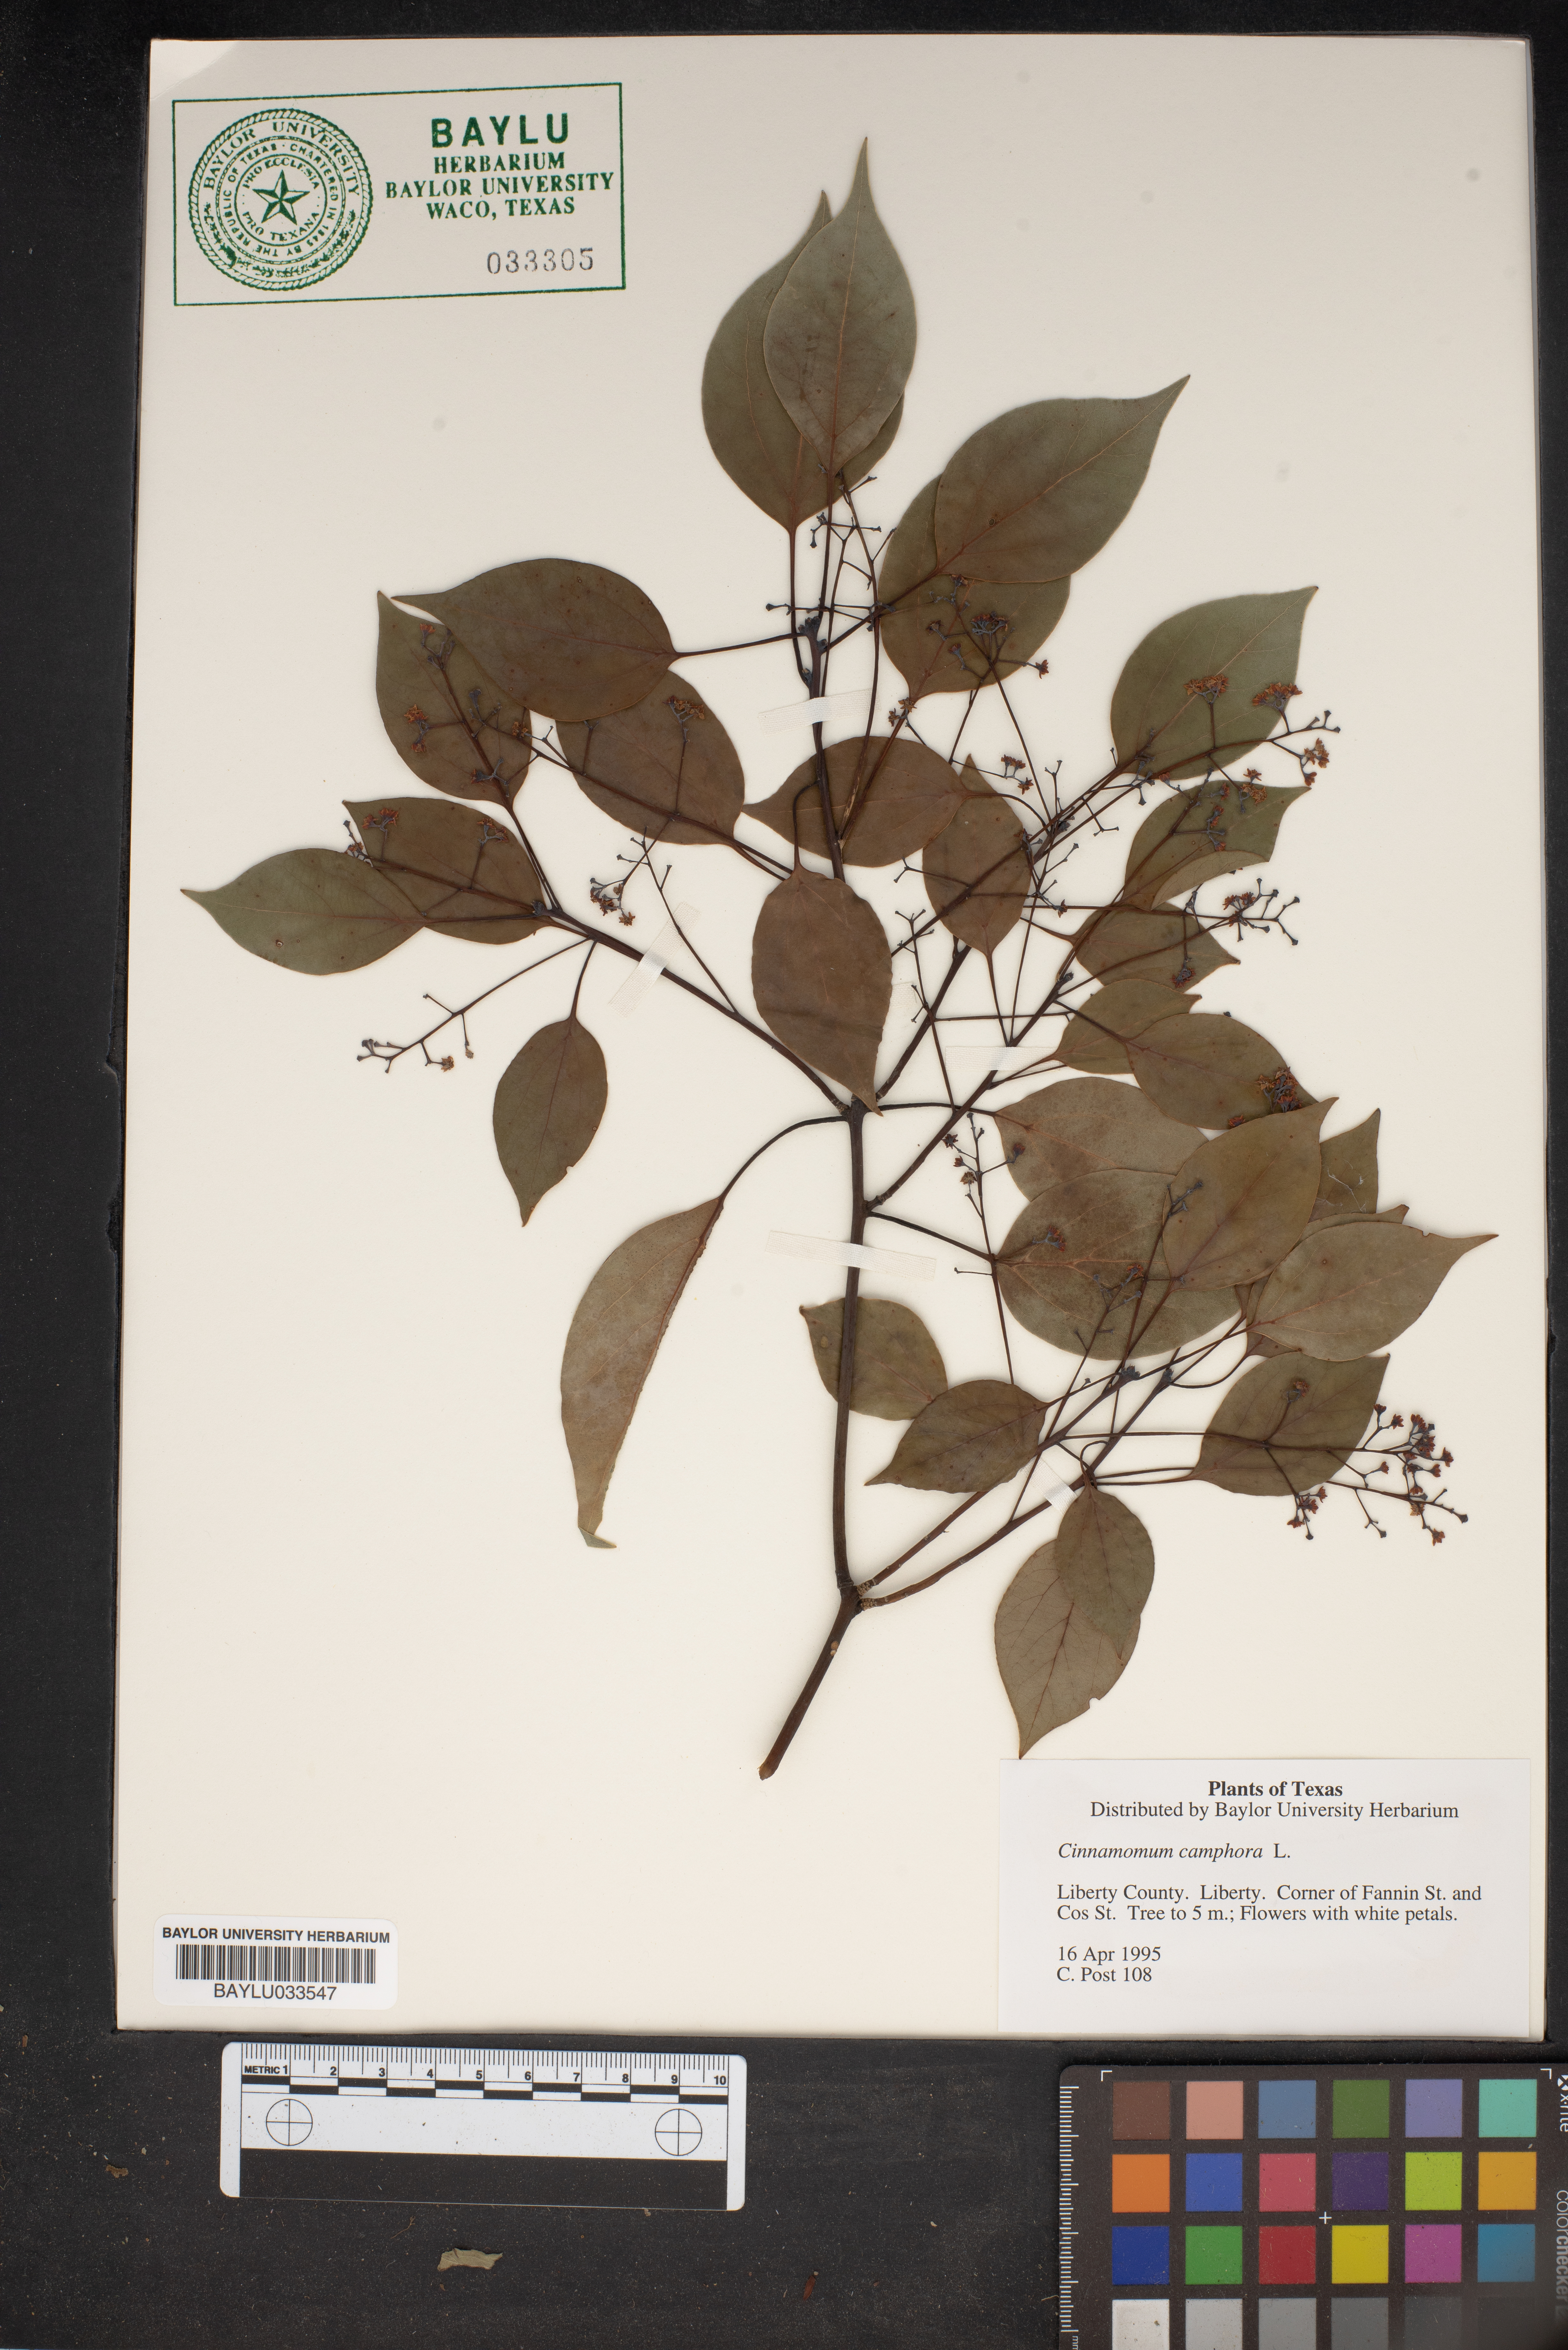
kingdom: Plantae
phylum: Tracheophyta
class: Magnoliopsida
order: Laurales
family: Lauraceae
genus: Cinnamomum
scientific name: Cinnamomum camphora
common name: Camphortree
